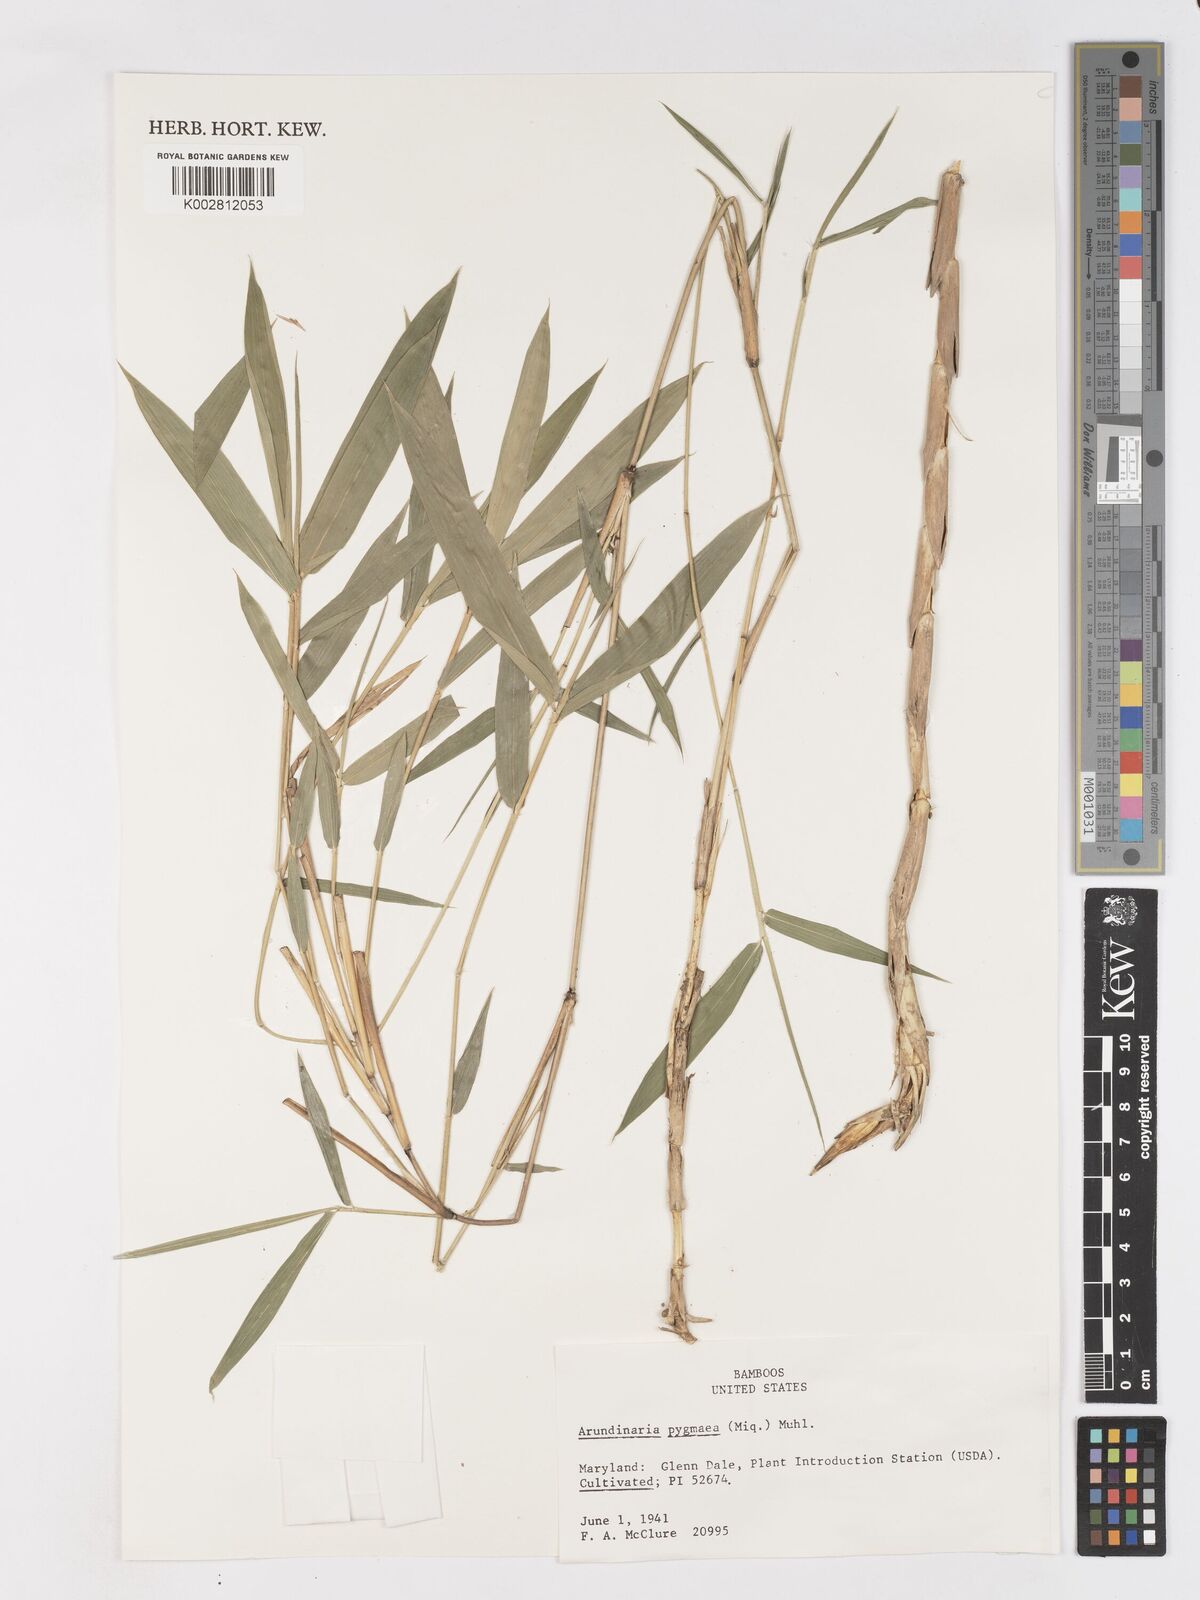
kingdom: Plantae
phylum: Tracheophyta
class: Liliopsida
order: Poales
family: Poaceae
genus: Borinda
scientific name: Borinda pleniculmis
